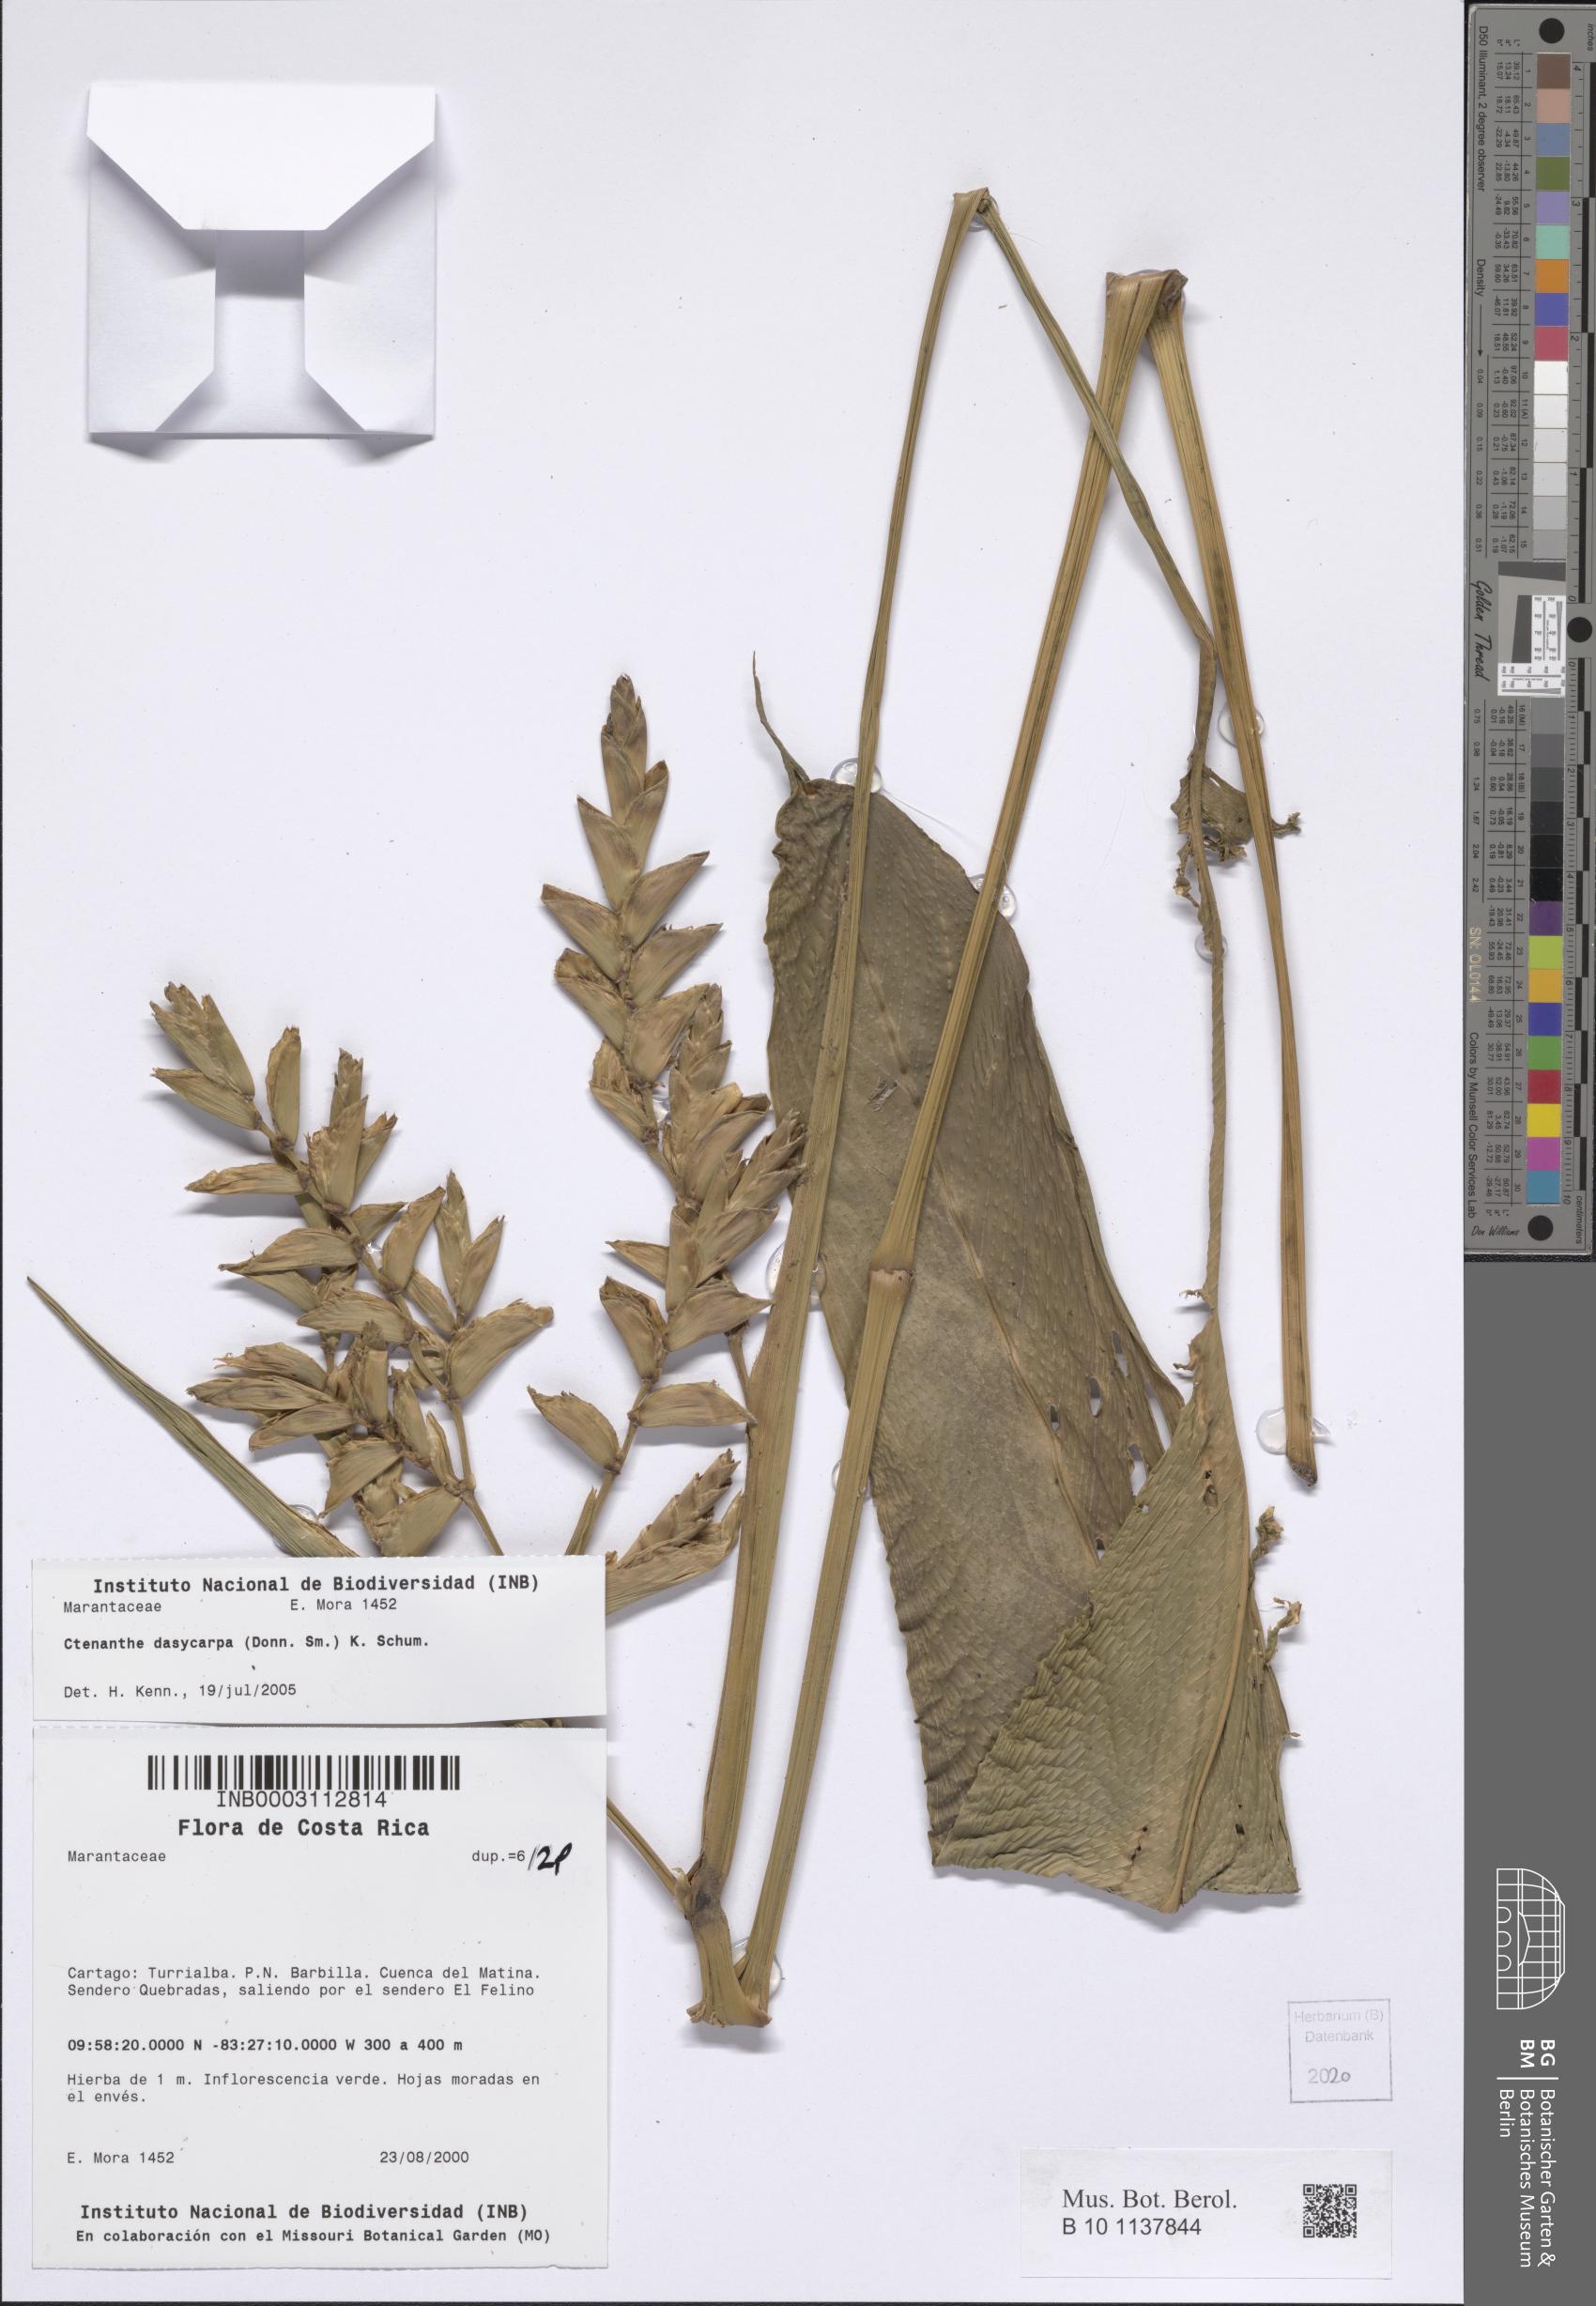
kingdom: Plantae
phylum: Tracheophyta
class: Liliopsida
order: Zingiberales
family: Marantaceae
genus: Ctenanthe
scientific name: Ctenanthe dasycarpa
